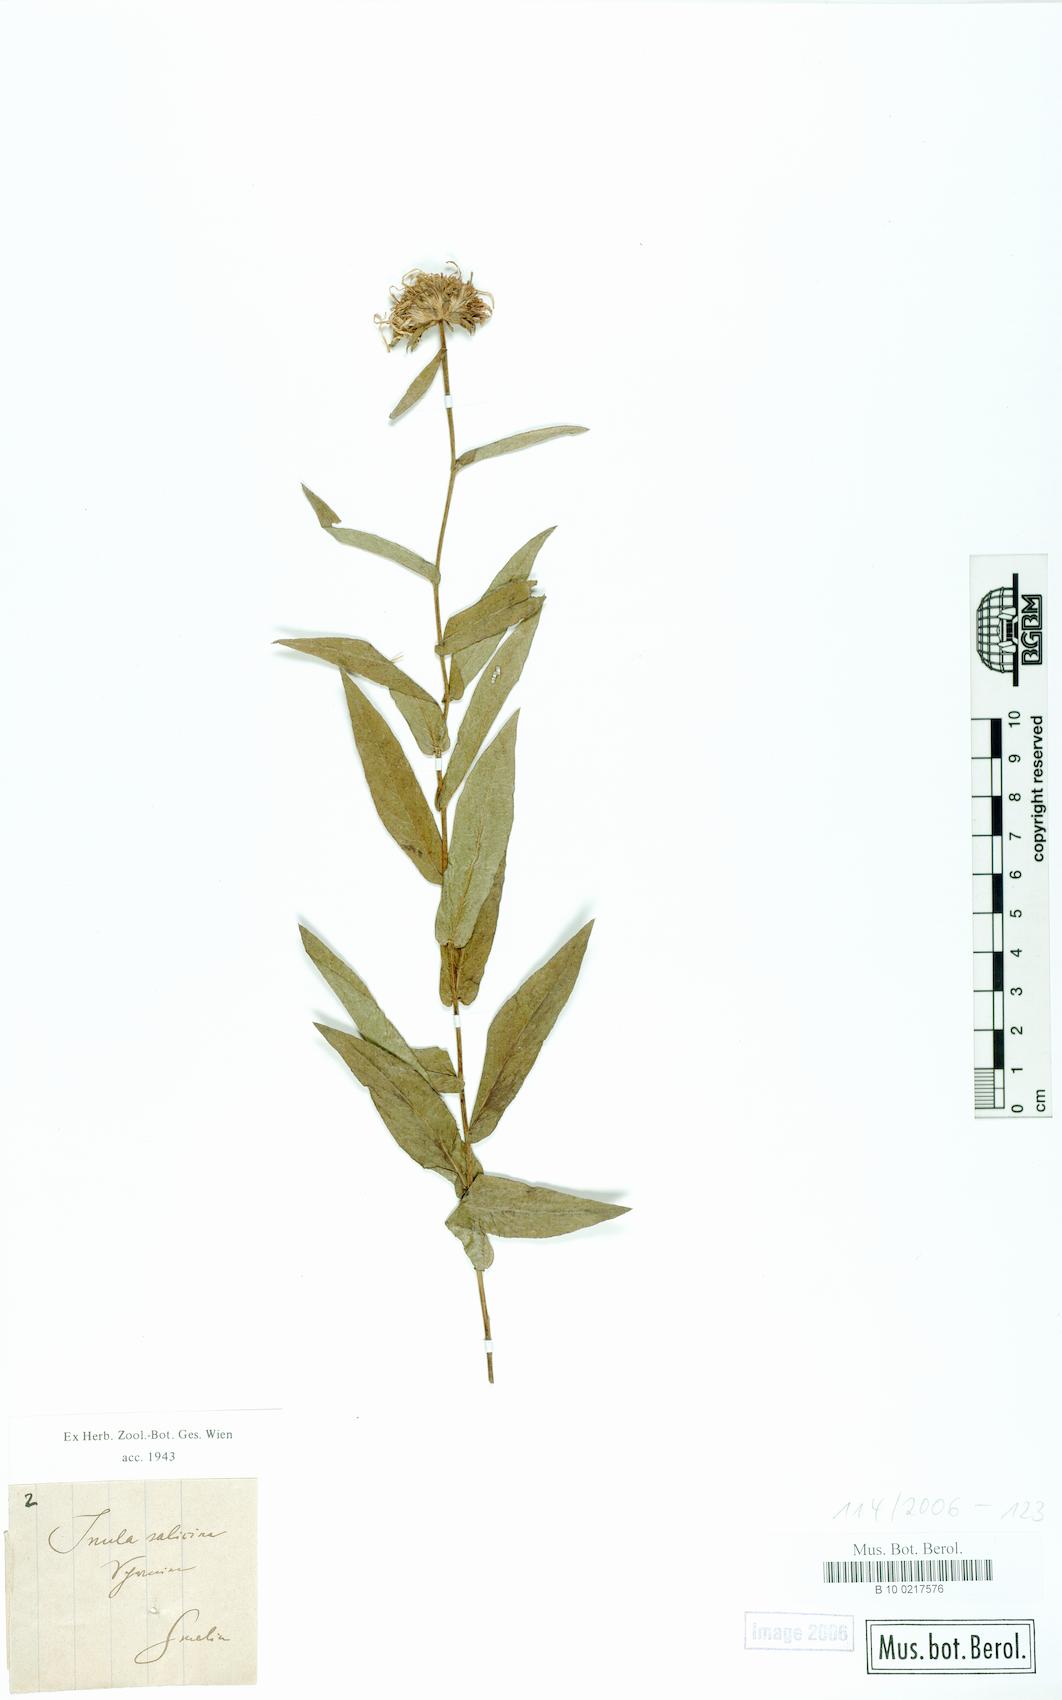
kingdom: Plantae
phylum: Tracheophyta
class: Magnoliopsida
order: Asterales
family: Asteraceae
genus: Pentanema
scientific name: Pentanema salicinum
